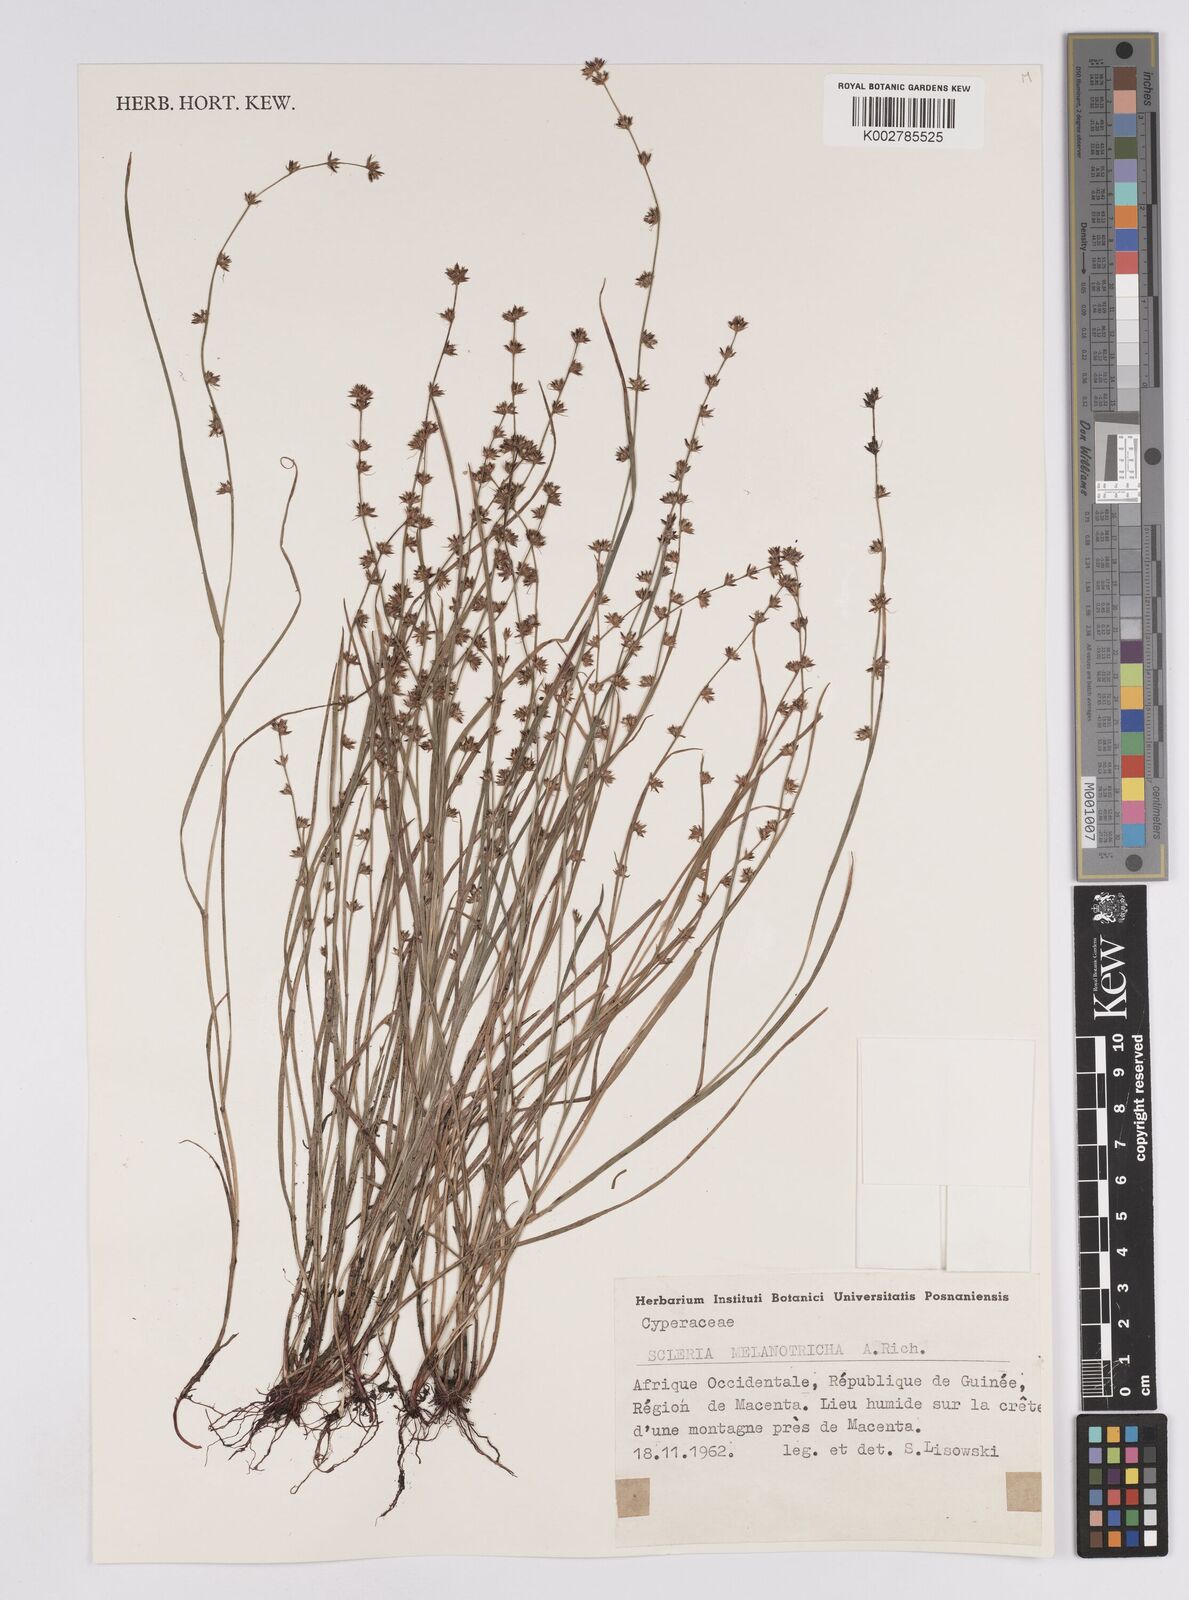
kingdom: Plantae
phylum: Tracheophyta
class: Liliopsida
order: Poales
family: Cyperaceae
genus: Scleria
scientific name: Scleria melanotricha
